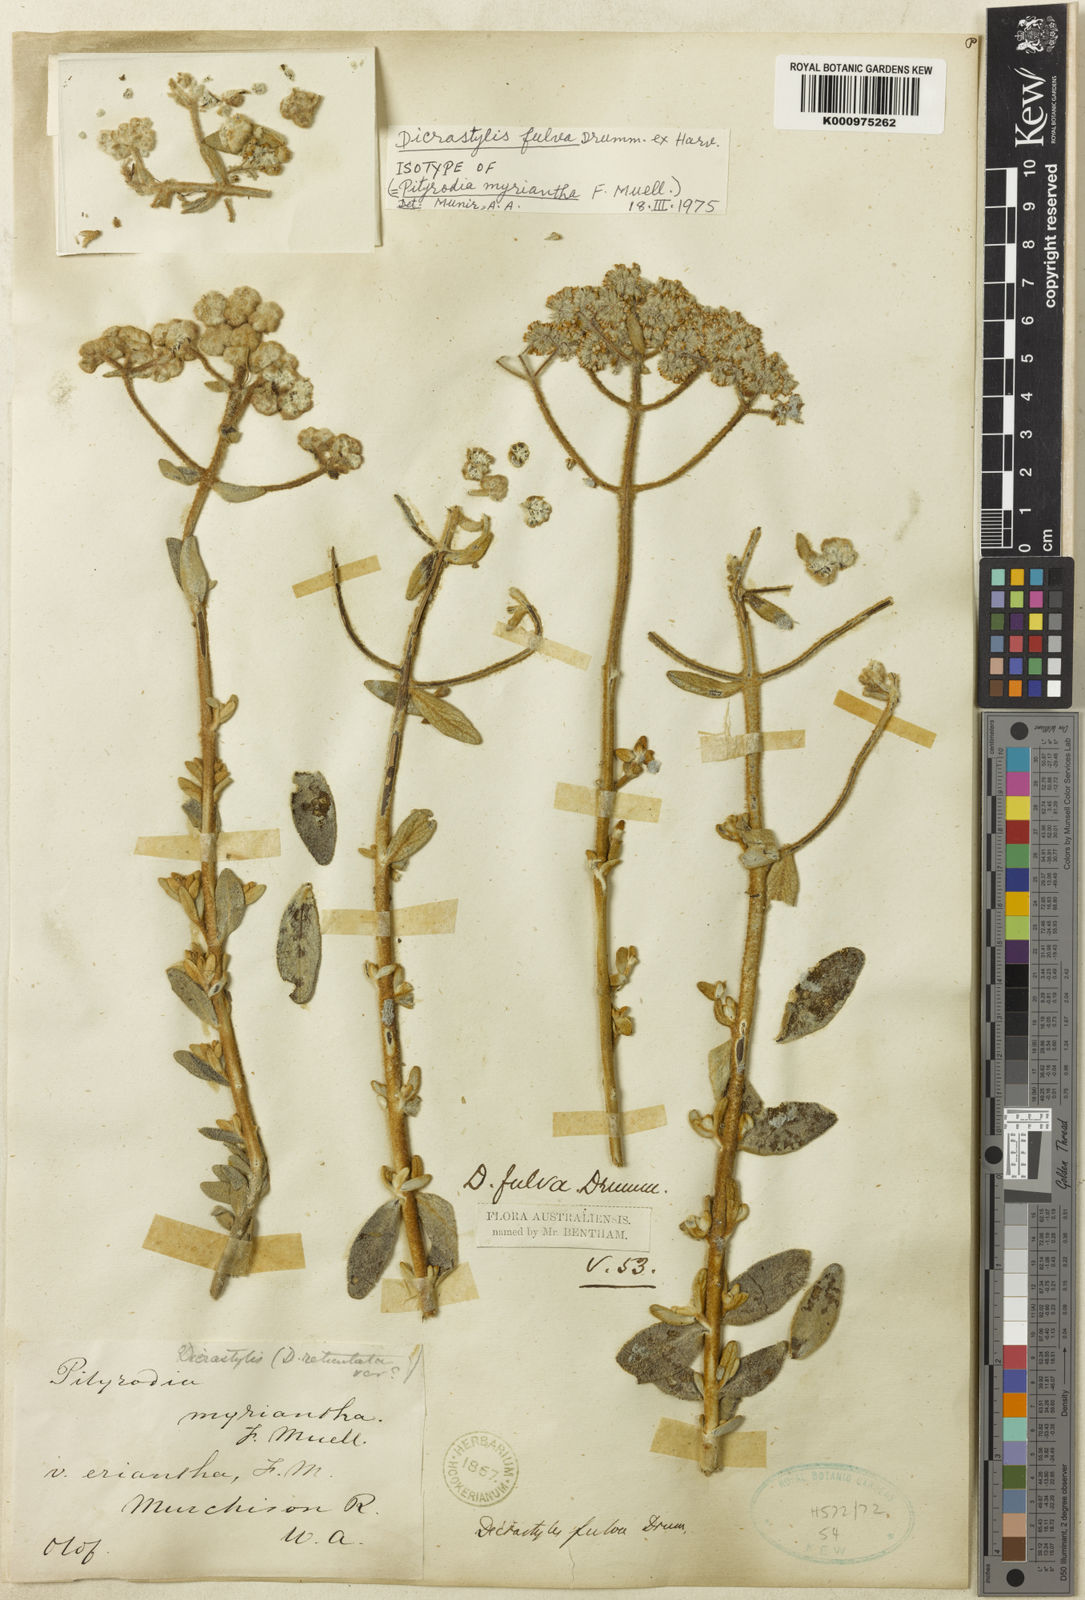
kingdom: Plantae
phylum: Tracheophyta
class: Magnoliopsida
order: Lamiales
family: Lamiaceae
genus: Dicrastylis
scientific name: Dicrastylis fulva
